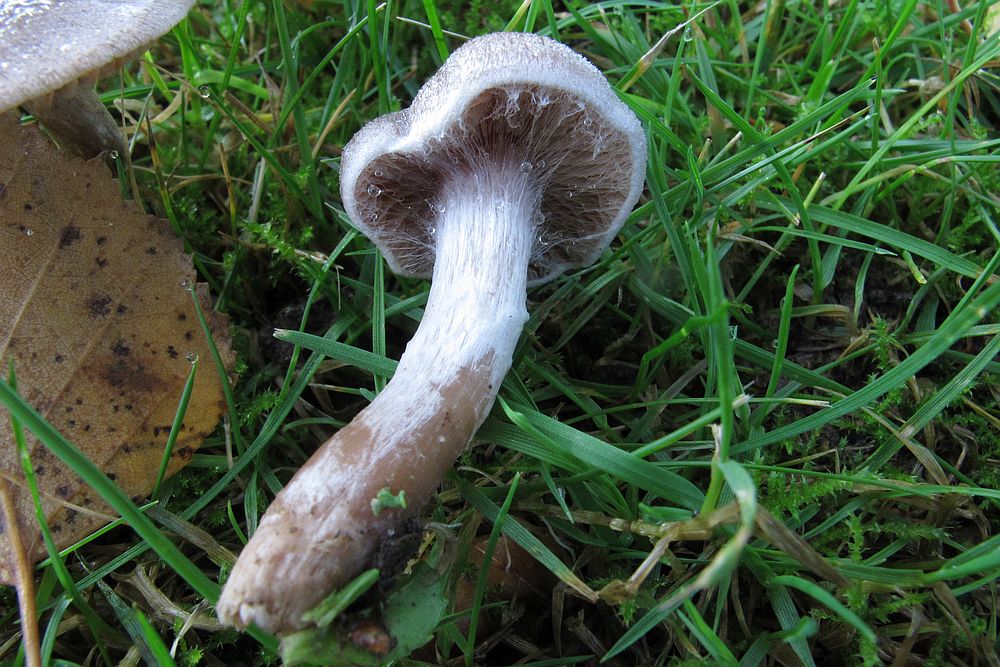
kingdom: Fungi
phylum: Basidiomycota
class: Agaricomycetes
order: Agaricales
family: Cortinariaceae
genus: Cortinarius
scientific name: Cortinarius
